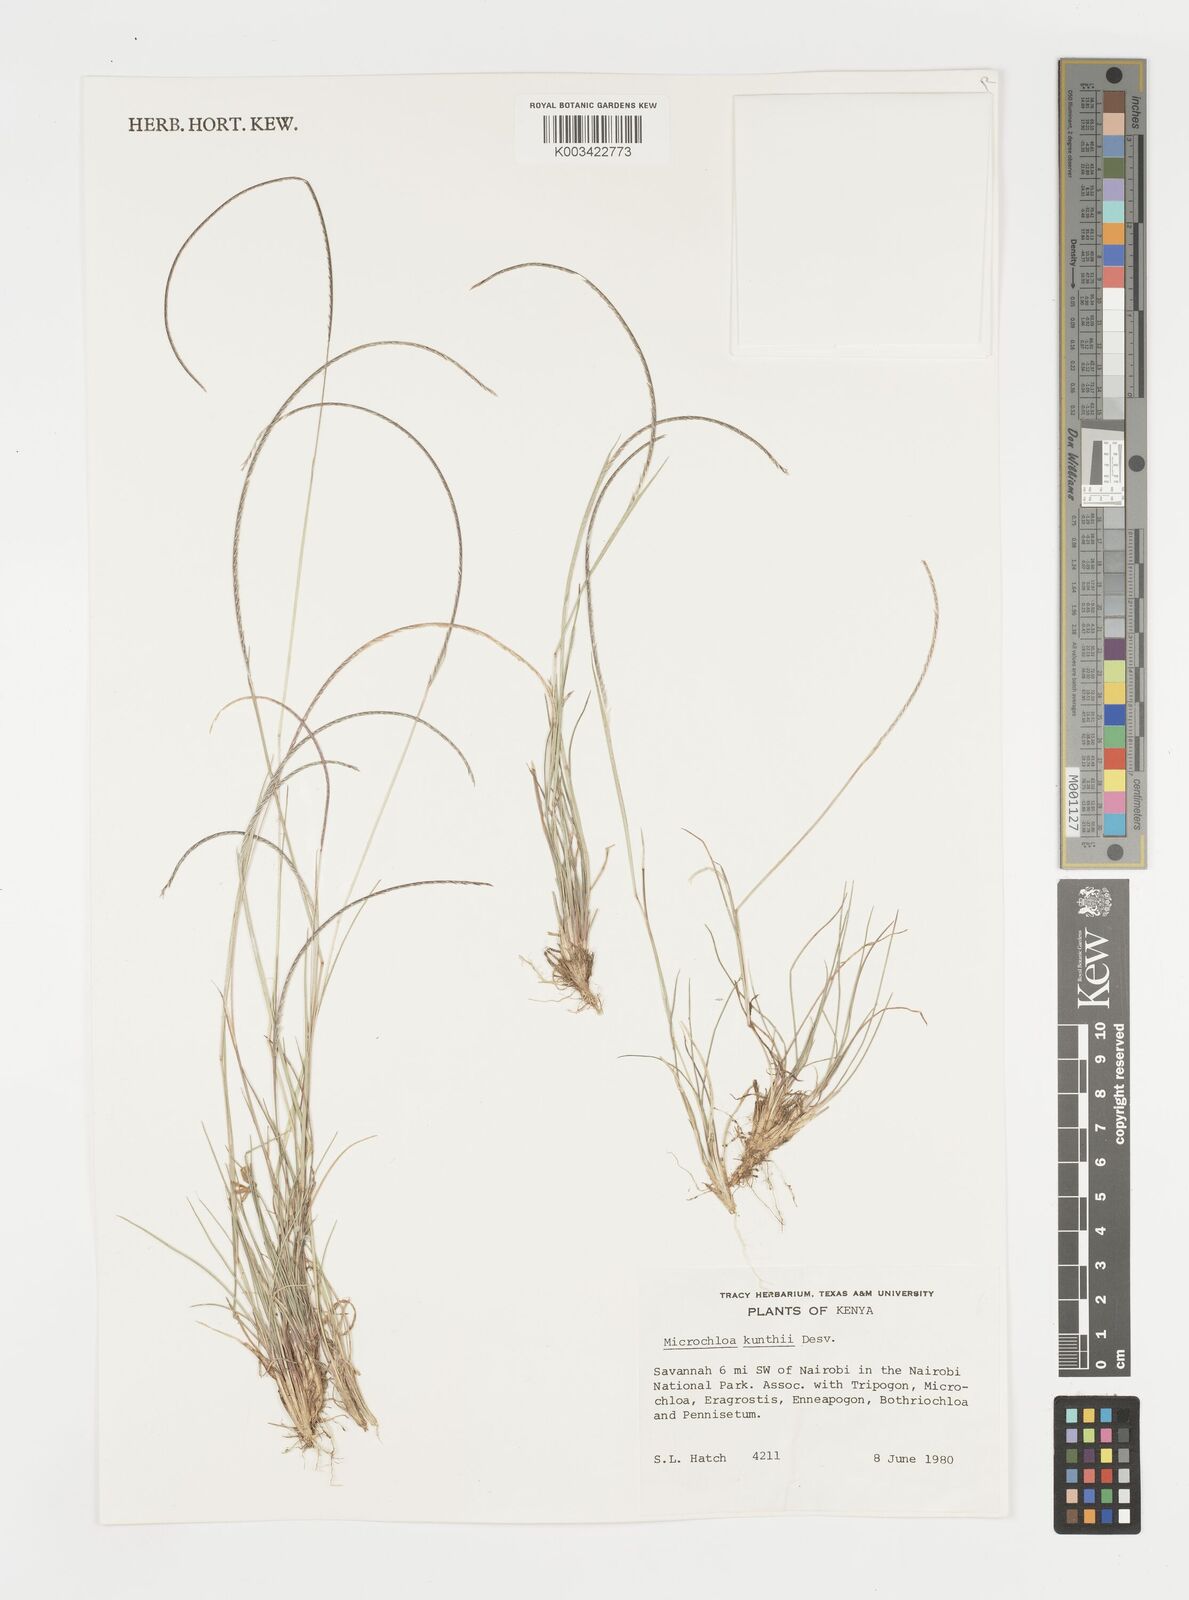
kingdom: Plantae
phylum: Tracheophyta
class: Liliopsida
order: Poales
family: Poaceae
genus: Microchloa
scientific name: Microchloa kunthii
